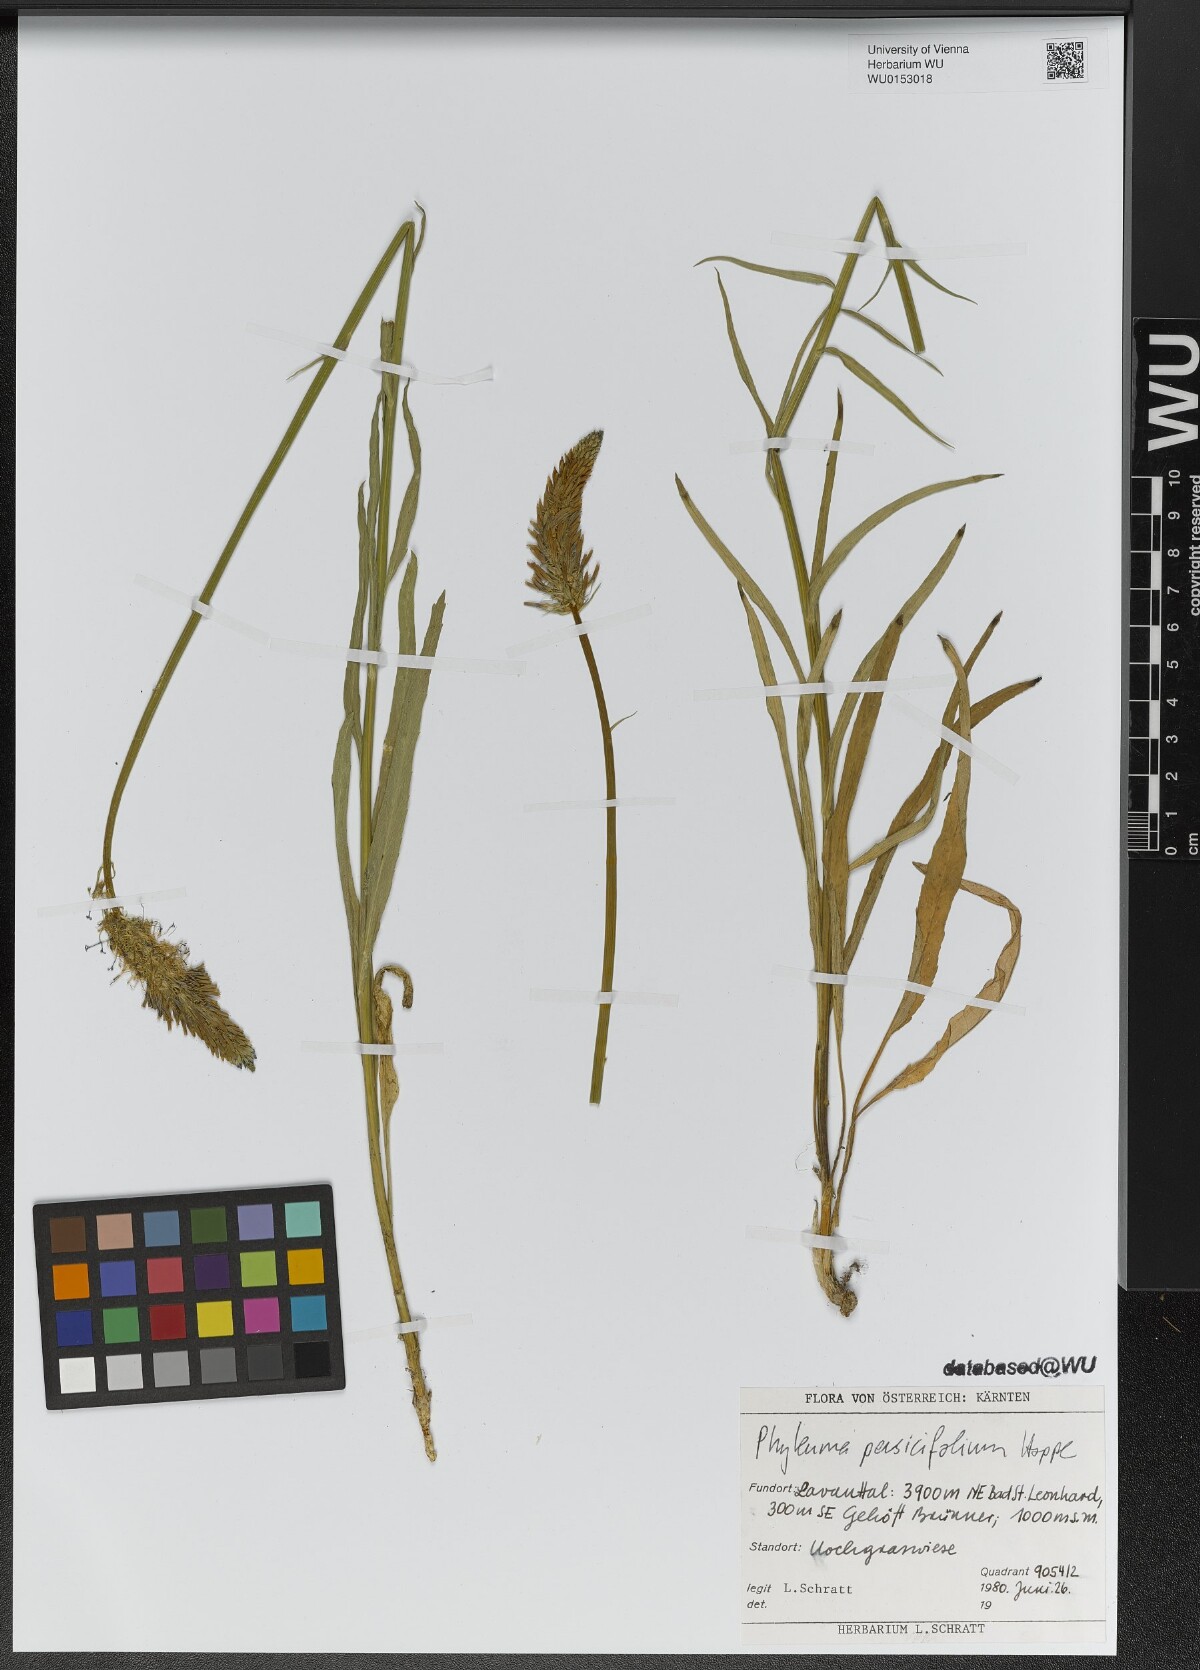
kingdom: Plantae
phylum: Tracheophyta
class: Magnoliopsida
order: Asterales
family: Campanulaceae
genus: Phyteuma
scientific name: Phyteuma persicifolium
